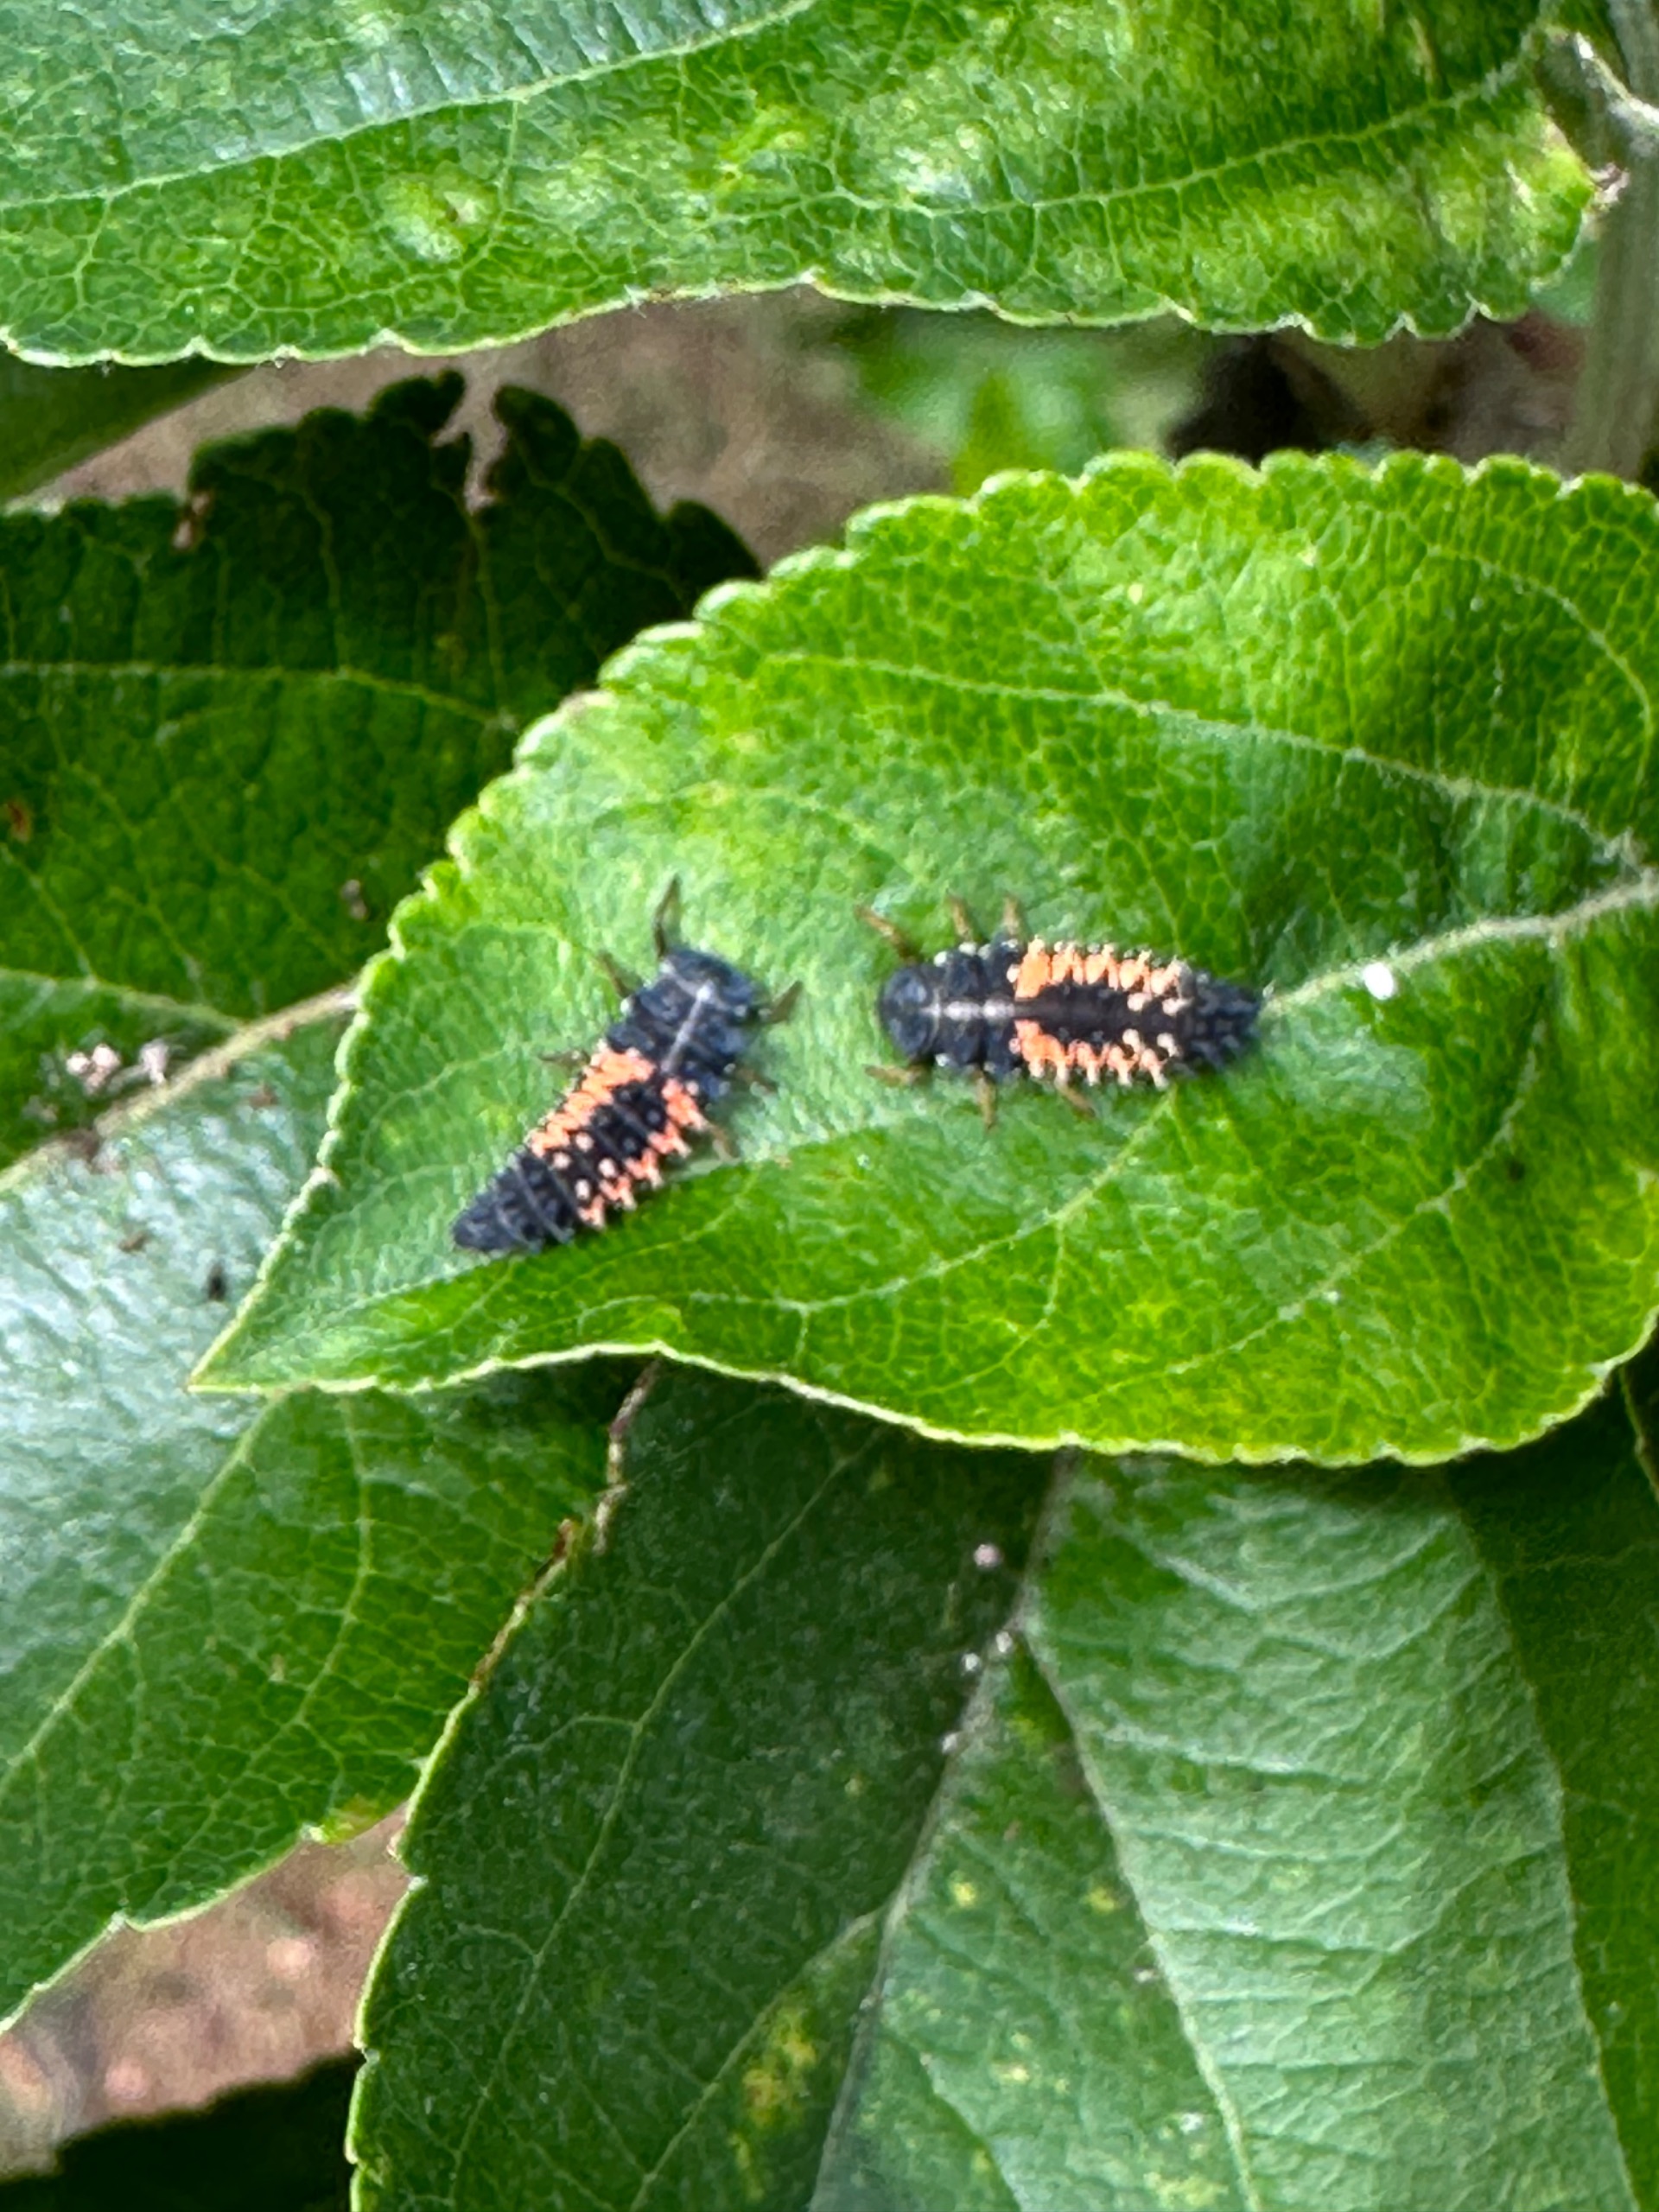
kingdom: Animalia
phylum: Arthropoda
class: Insecta
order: Coleoptera
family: Coccinellidae
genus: Harmonia
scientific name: Harmonia axyridis
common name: Harlekinmariehøne
